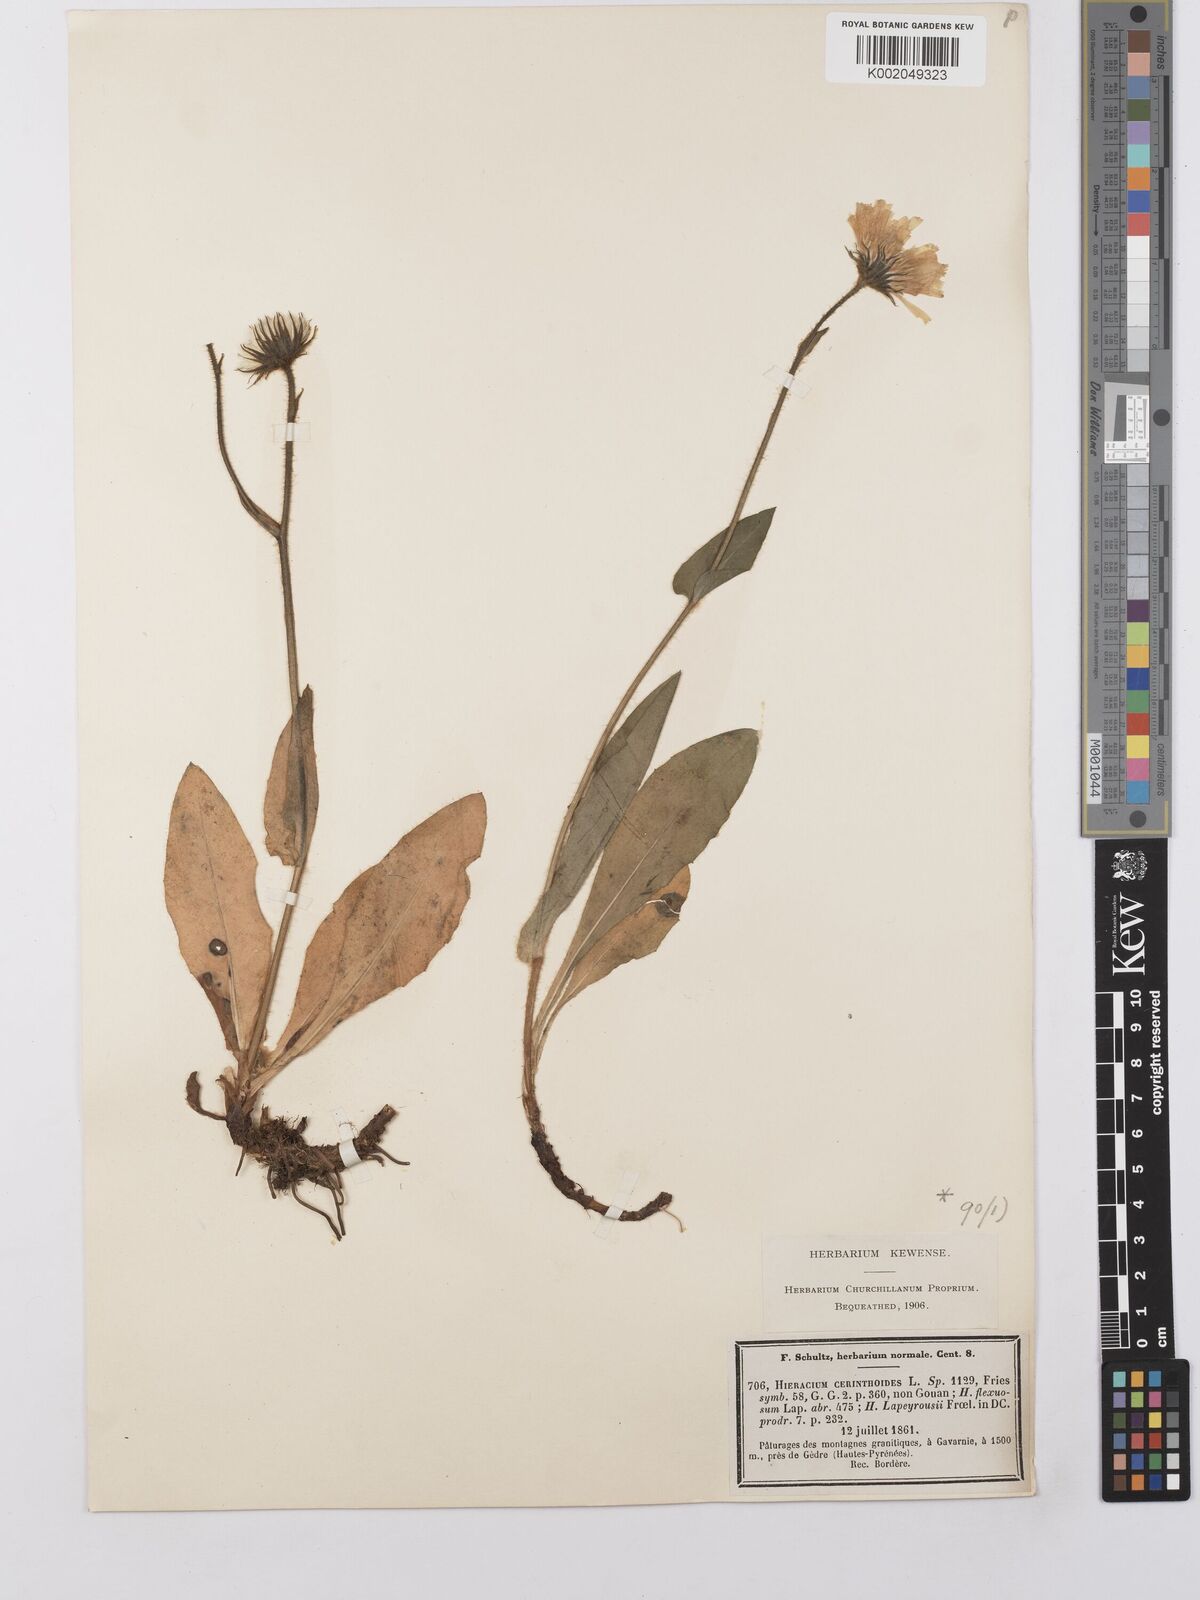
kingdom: Plantae
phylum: Tracheophyta
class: Magnoliopsida
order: Asterales
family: Asteraceae
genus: Hieracium
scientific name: Hieracium cerinthoides
